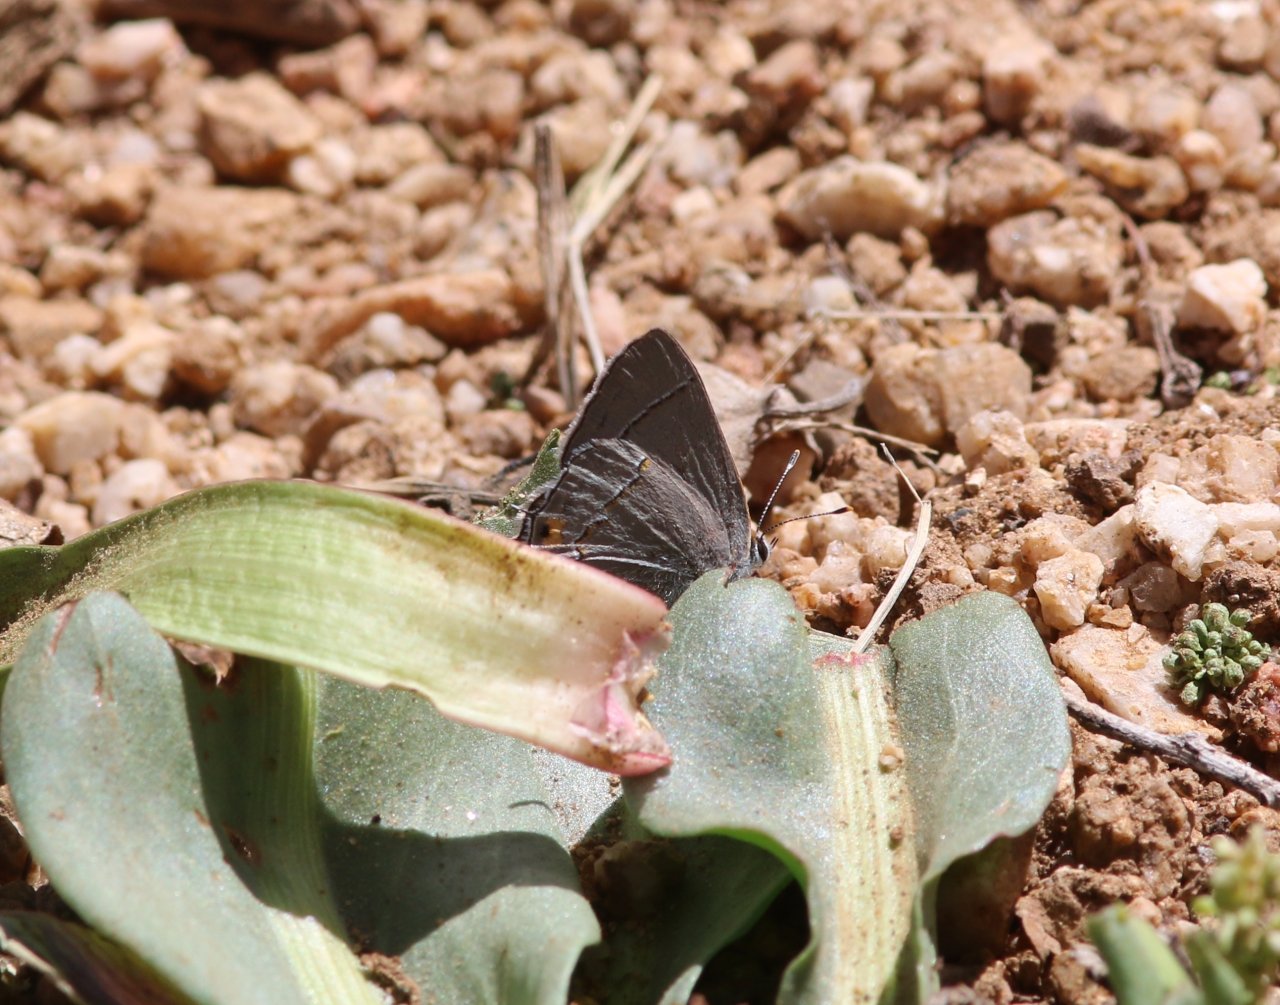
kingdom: Animalia
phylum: Arthropoda
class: Insecta
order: Lepidoptera
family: Lycaenidae
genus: Strymon
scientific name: Strymon melinus
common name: Gray Hairstreak
